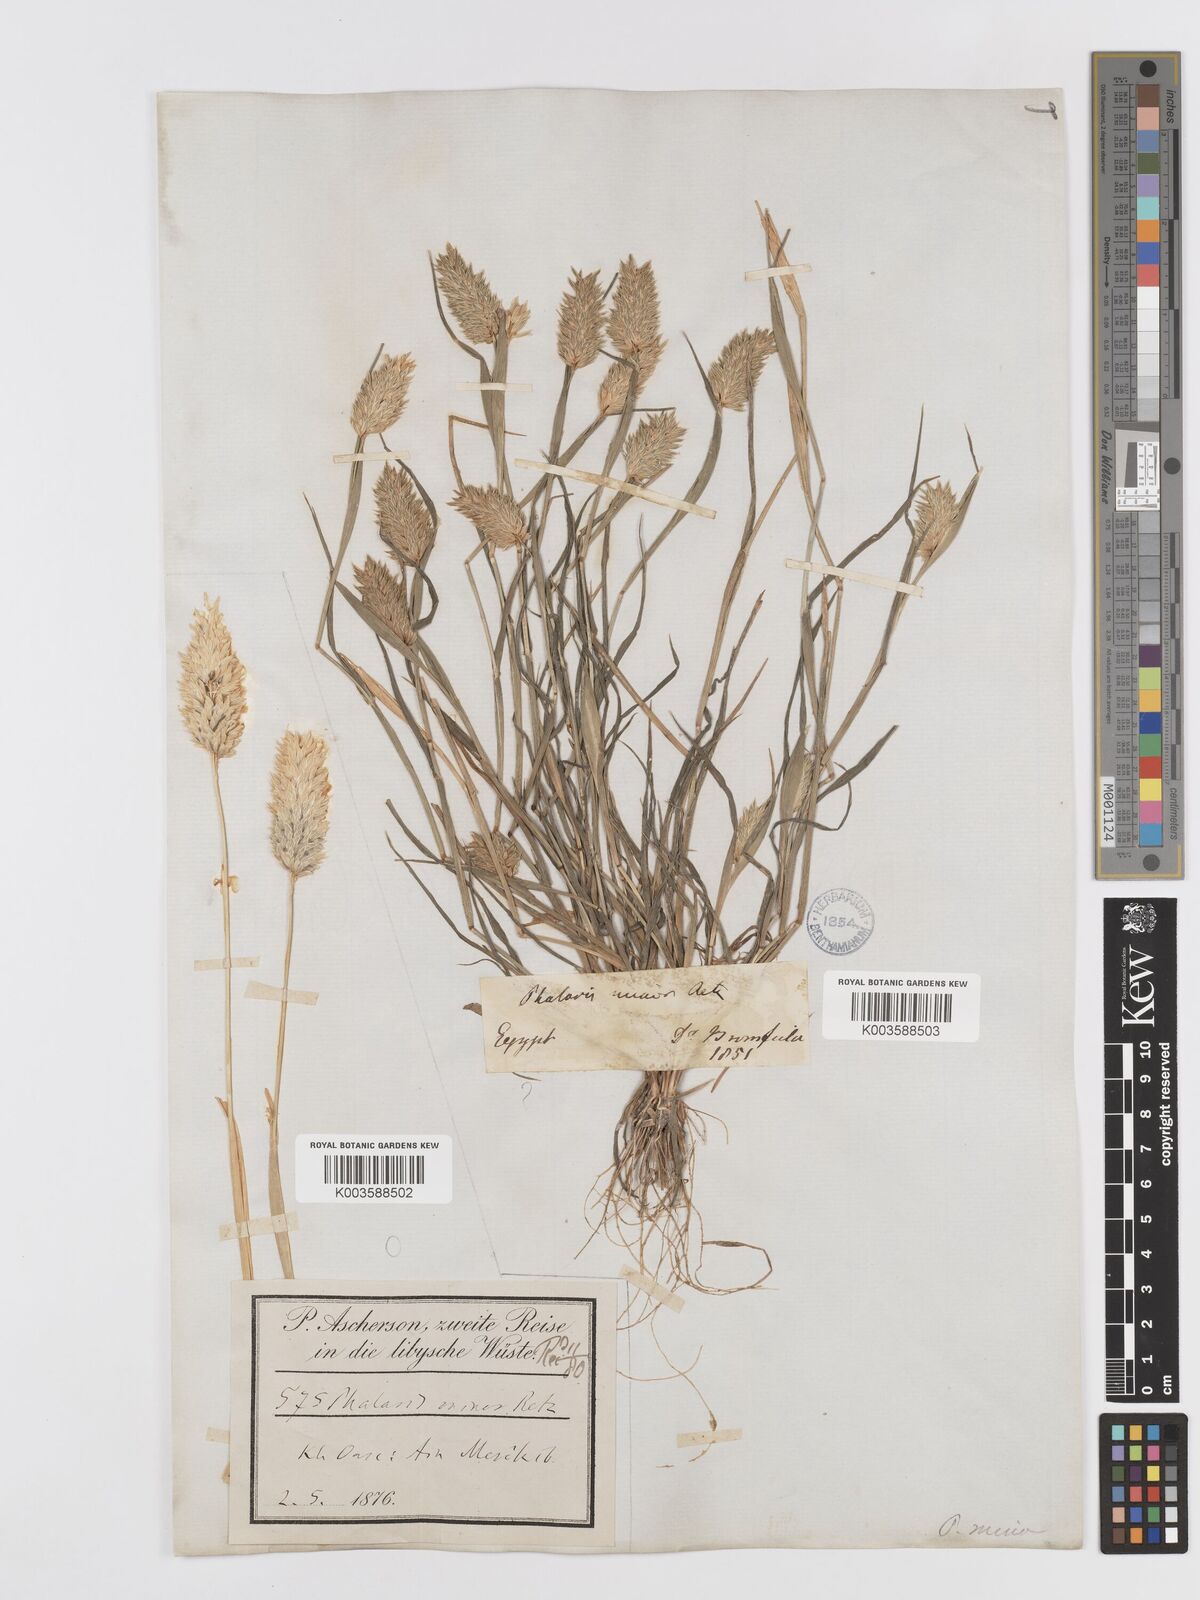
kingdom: Plantae
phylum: Tracheophyta
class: Liliopsida
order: Poales
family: Poaceae
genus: Phalaris
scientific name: Phalaris minor
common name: Littleseed canarygrass
